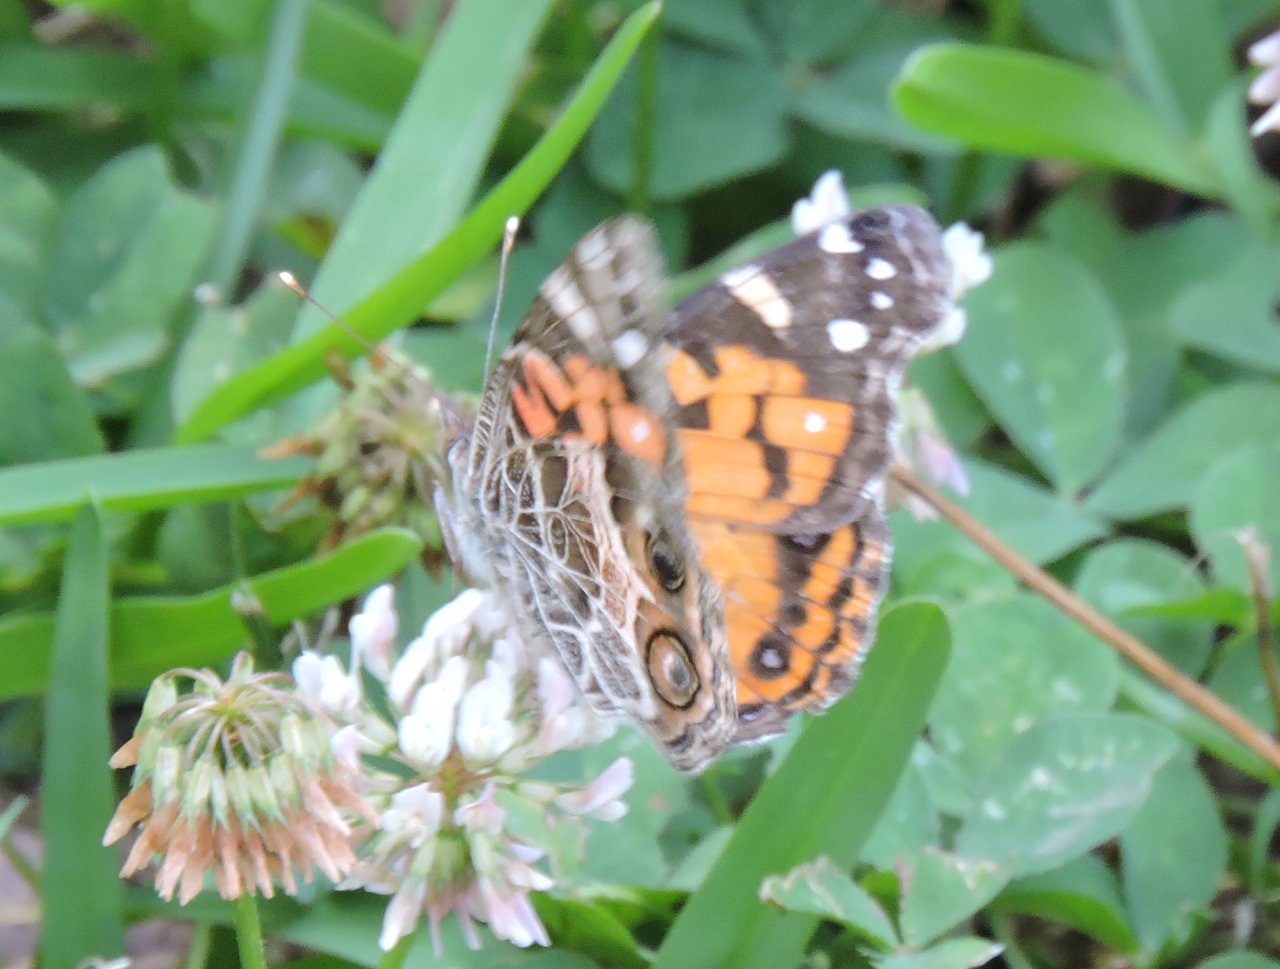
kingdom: Animalia
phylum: Arthropoda
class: Insecta
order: Lepidoptera
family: Nymphalidae
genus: Vanessa
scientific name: Vanessa virginiensis
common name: American Lady
